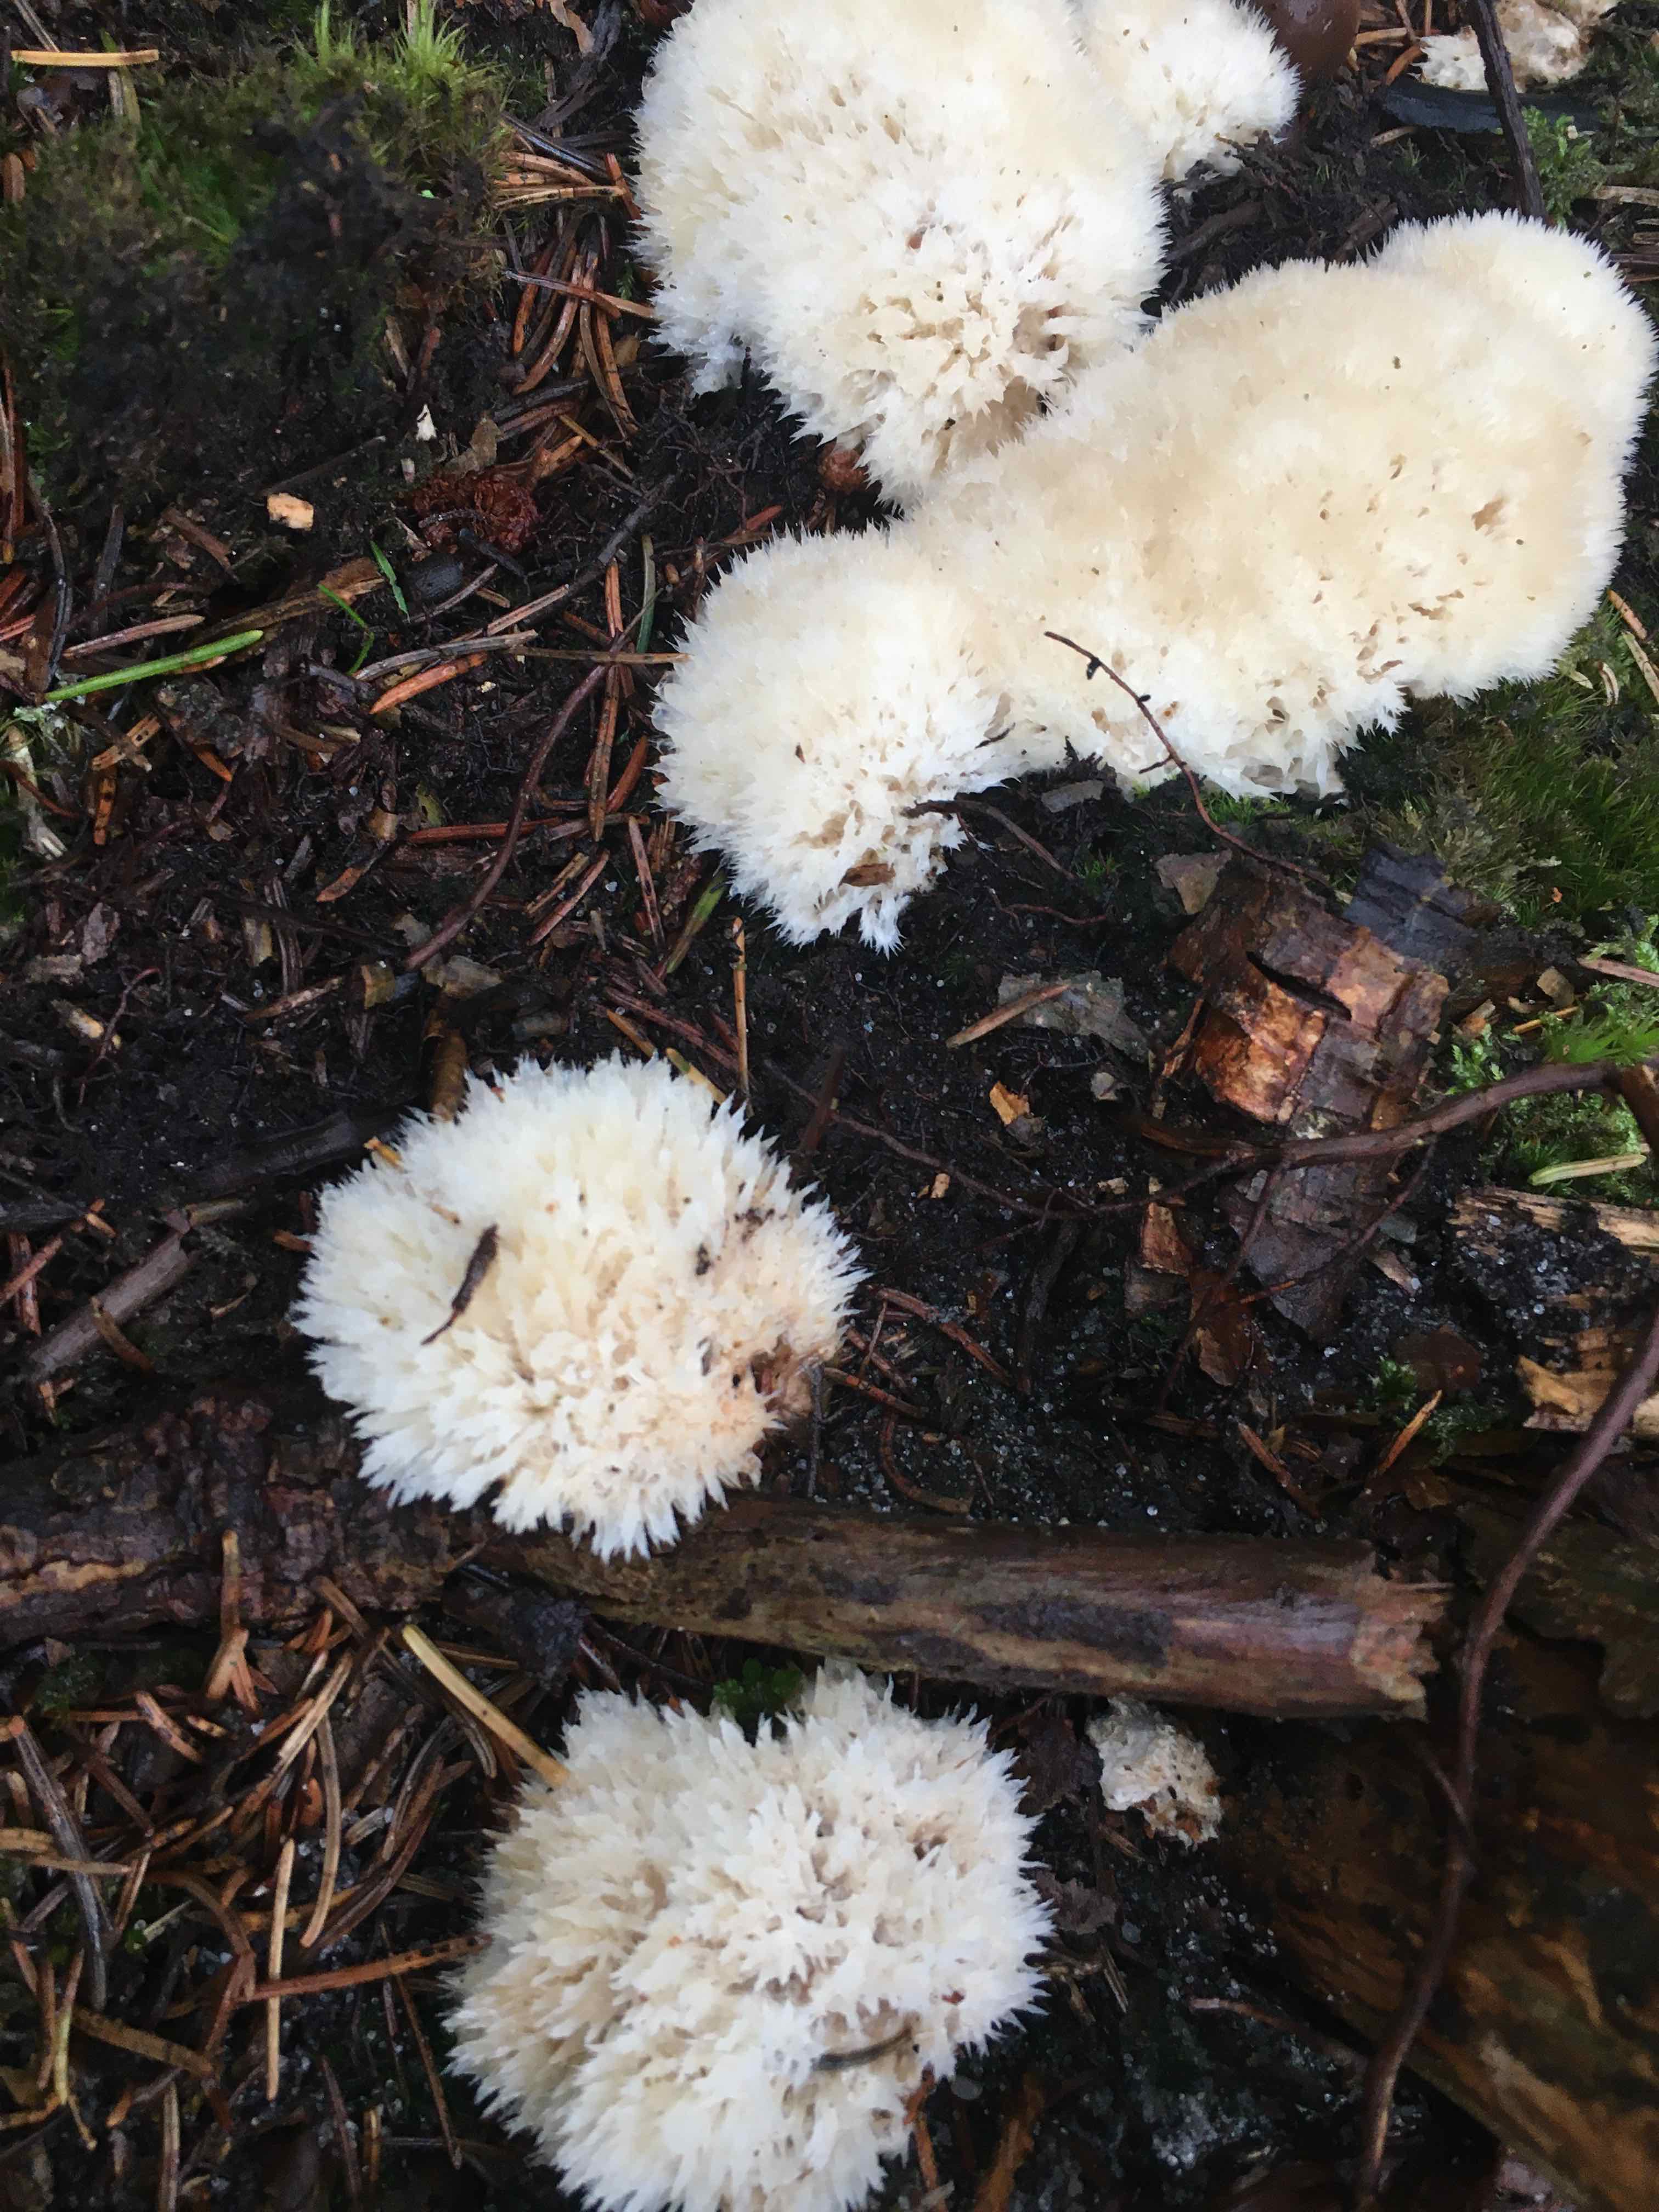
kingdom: Fungi
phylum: Basidiomycota
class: Agaricomycetes
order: Polyporales
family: Dacryobolaceae
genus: Postia
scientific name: Postia ptychogaster
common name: støvende kødporesvamp
